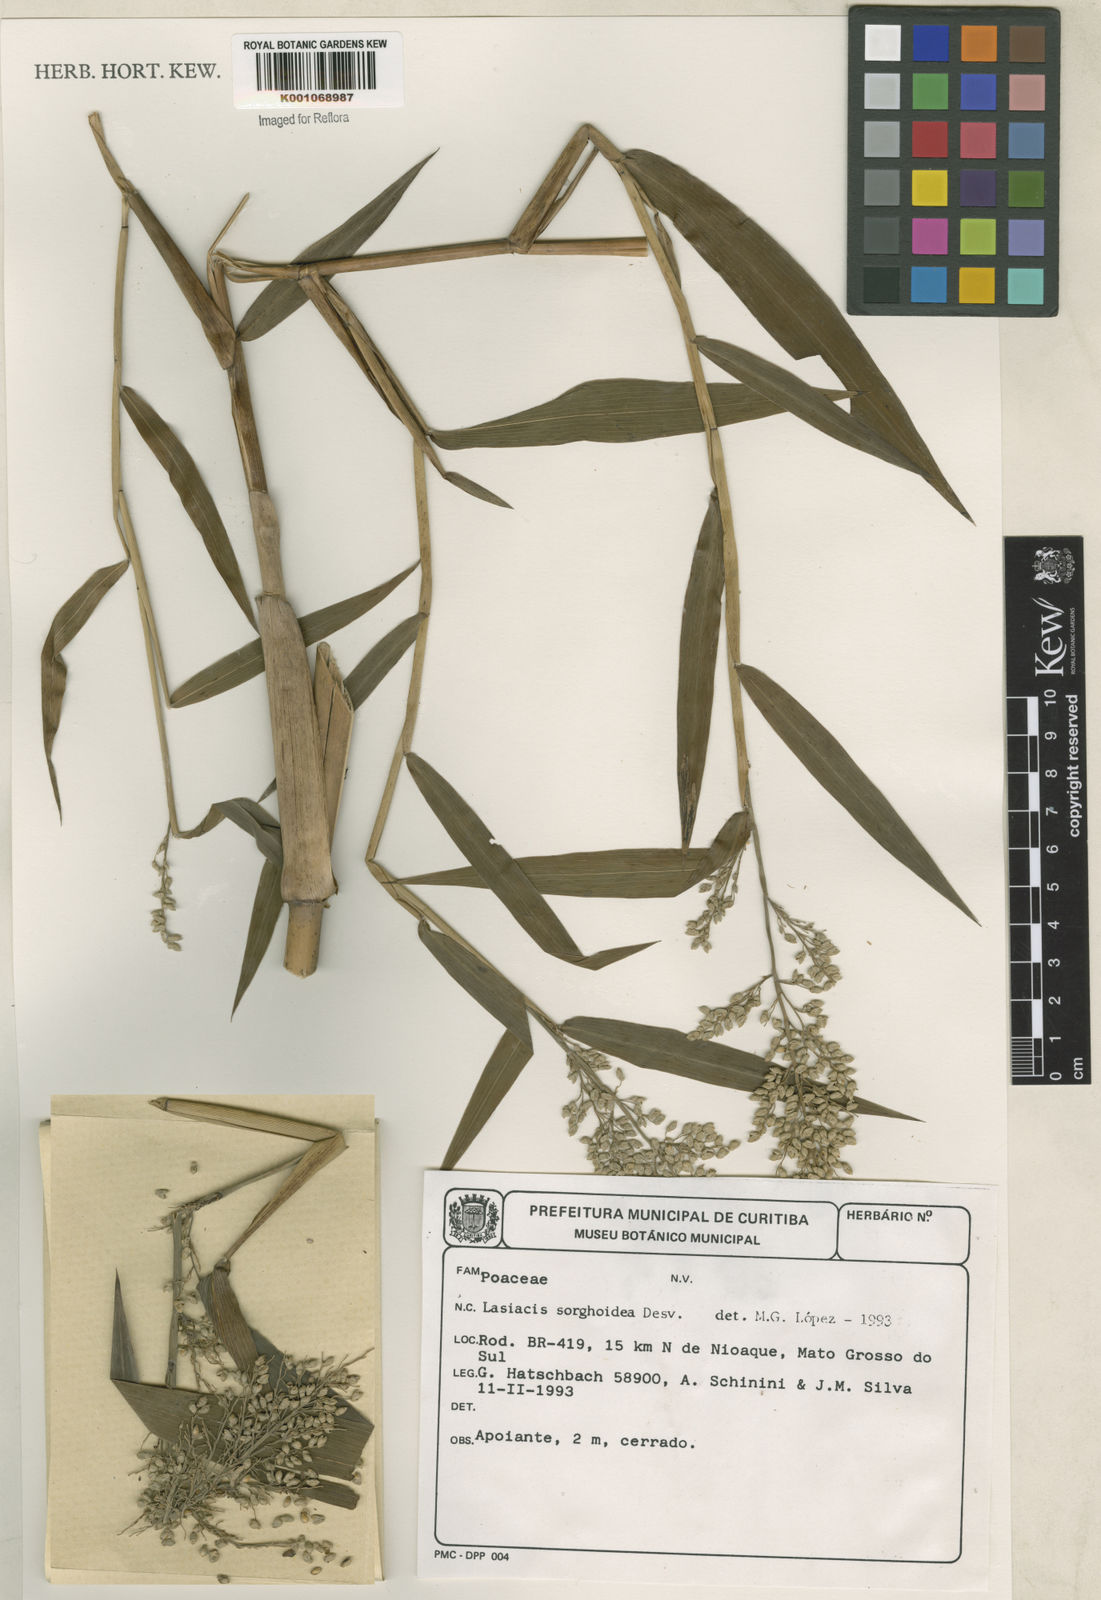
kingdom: Plantae
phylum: Tracheophyta
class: Liliopsida
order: Poales
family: Poaceae
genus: Lasiacis
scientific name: Lasiacis maculata
